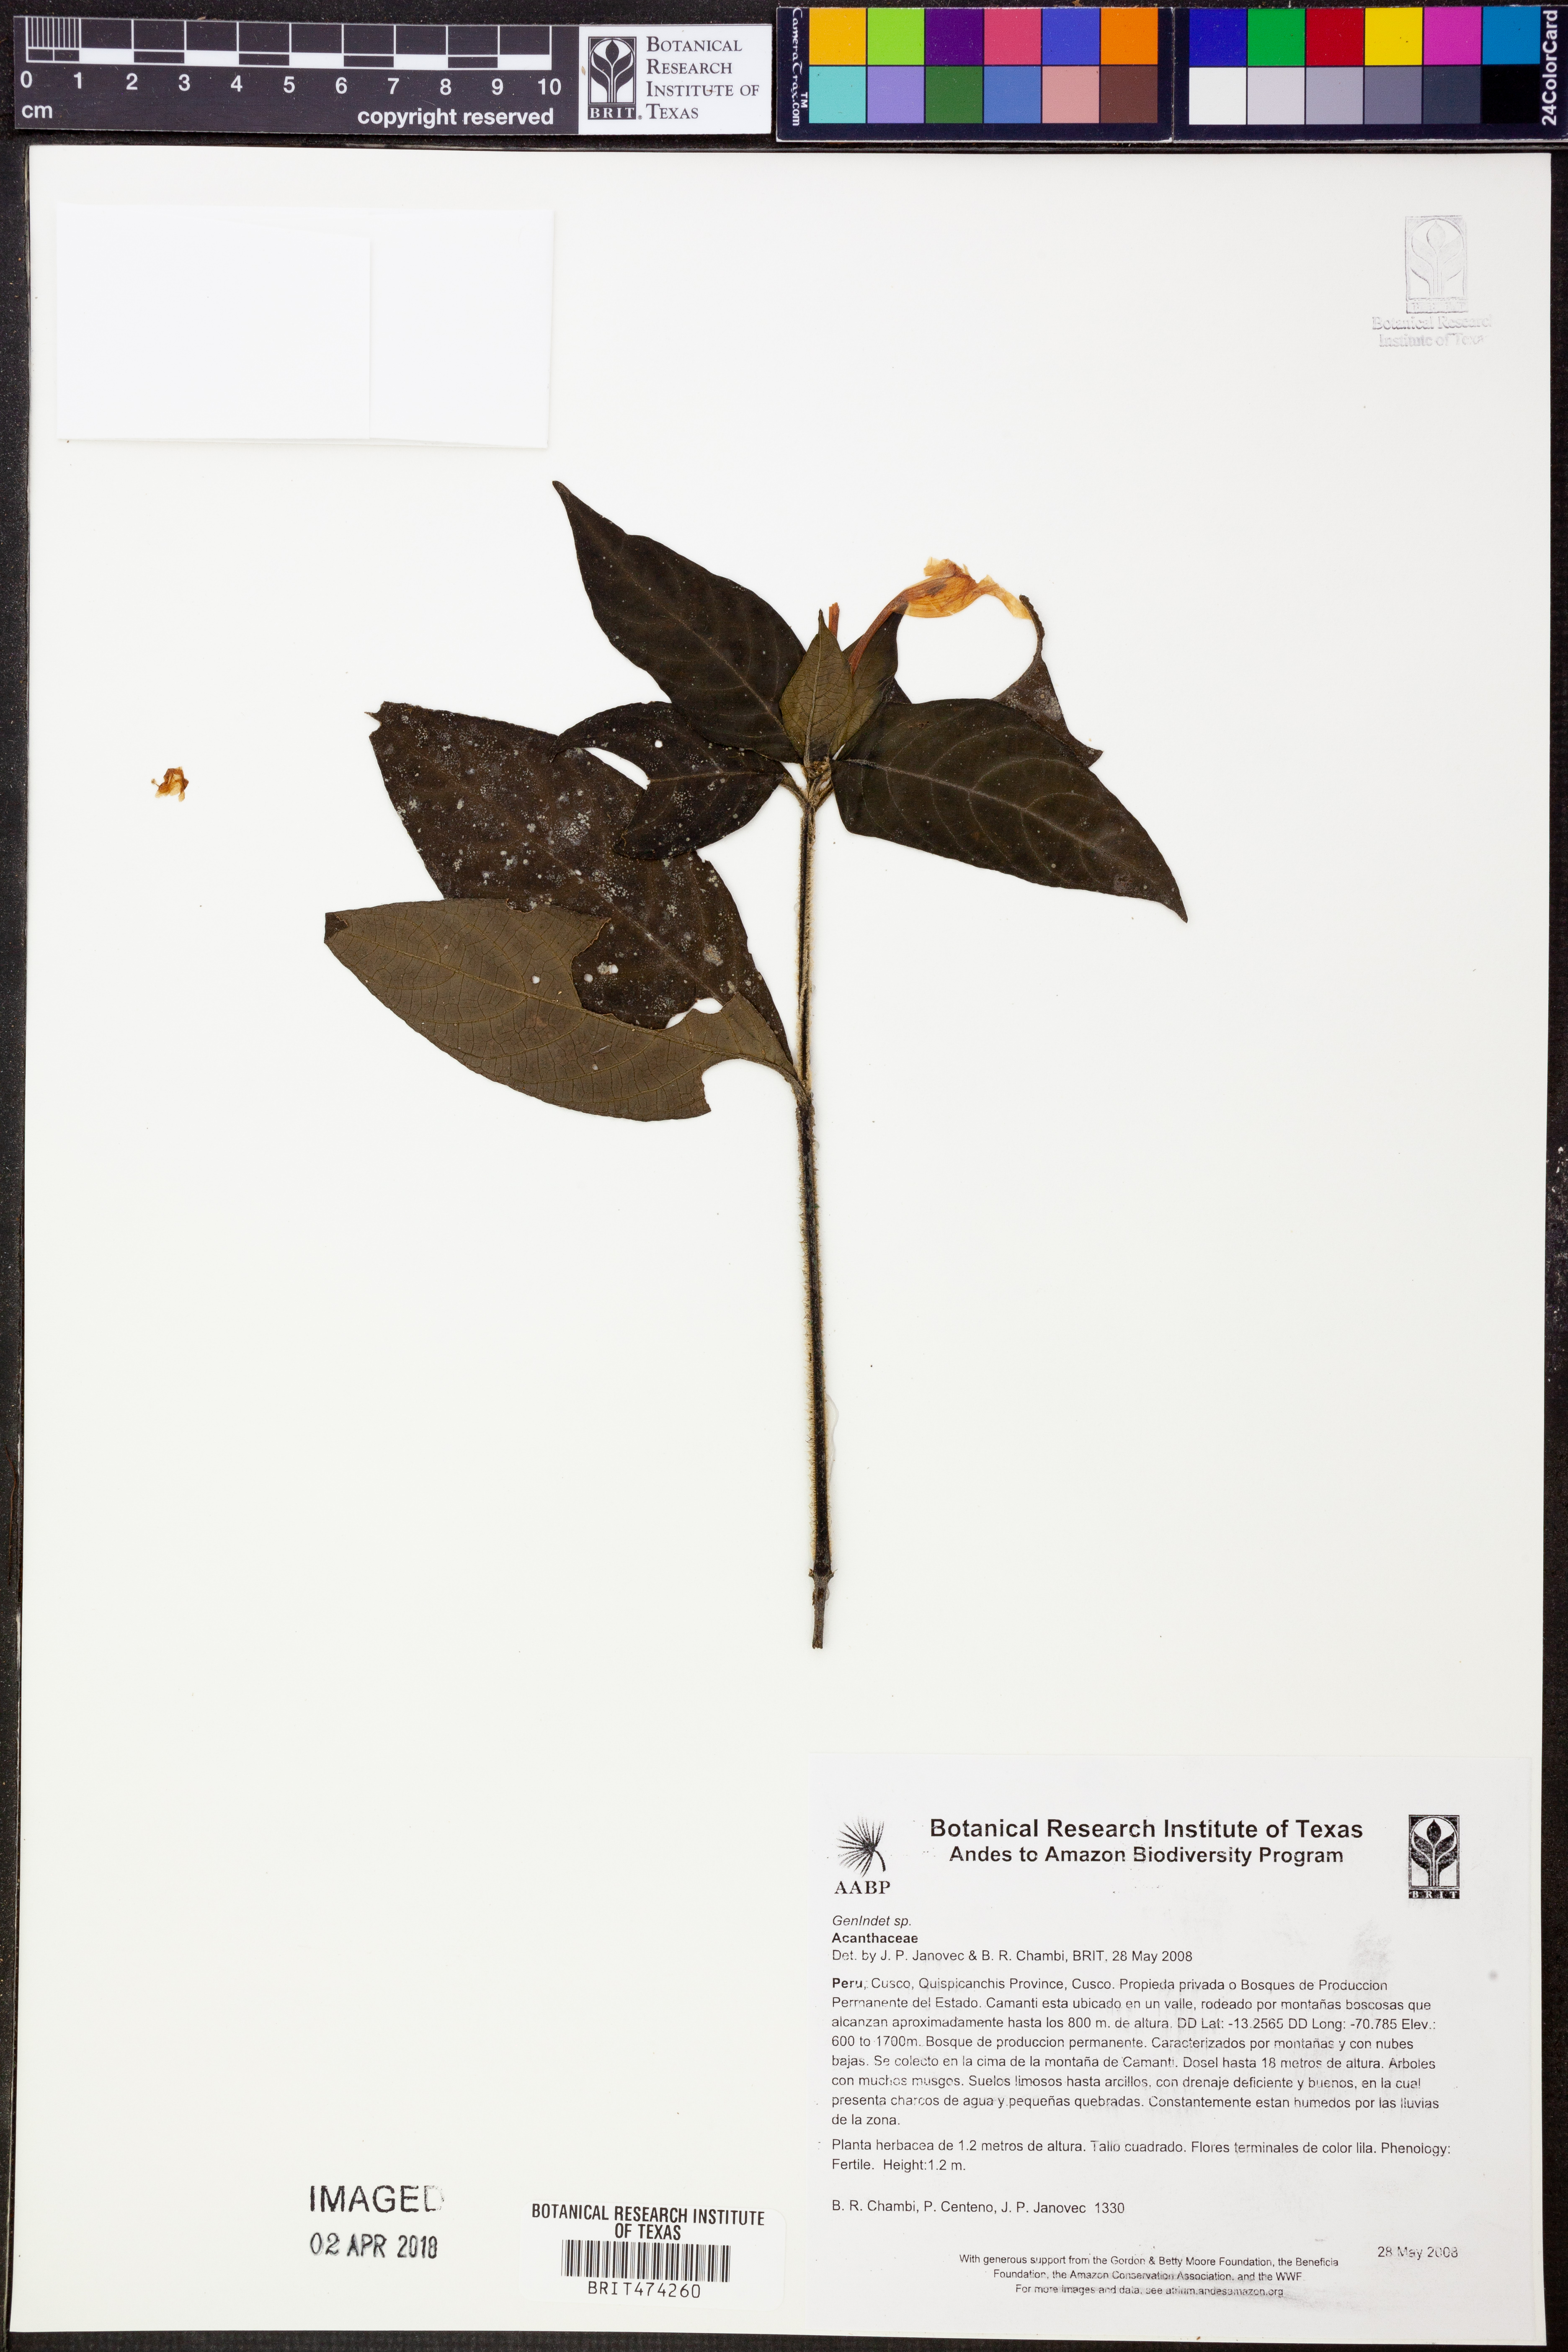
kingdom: Plantae
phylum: Tracheophyta
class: Magnoliopsida
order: Lamiales
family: Acanthaceae
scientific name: Acanthaceae
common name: Acanthaceae
